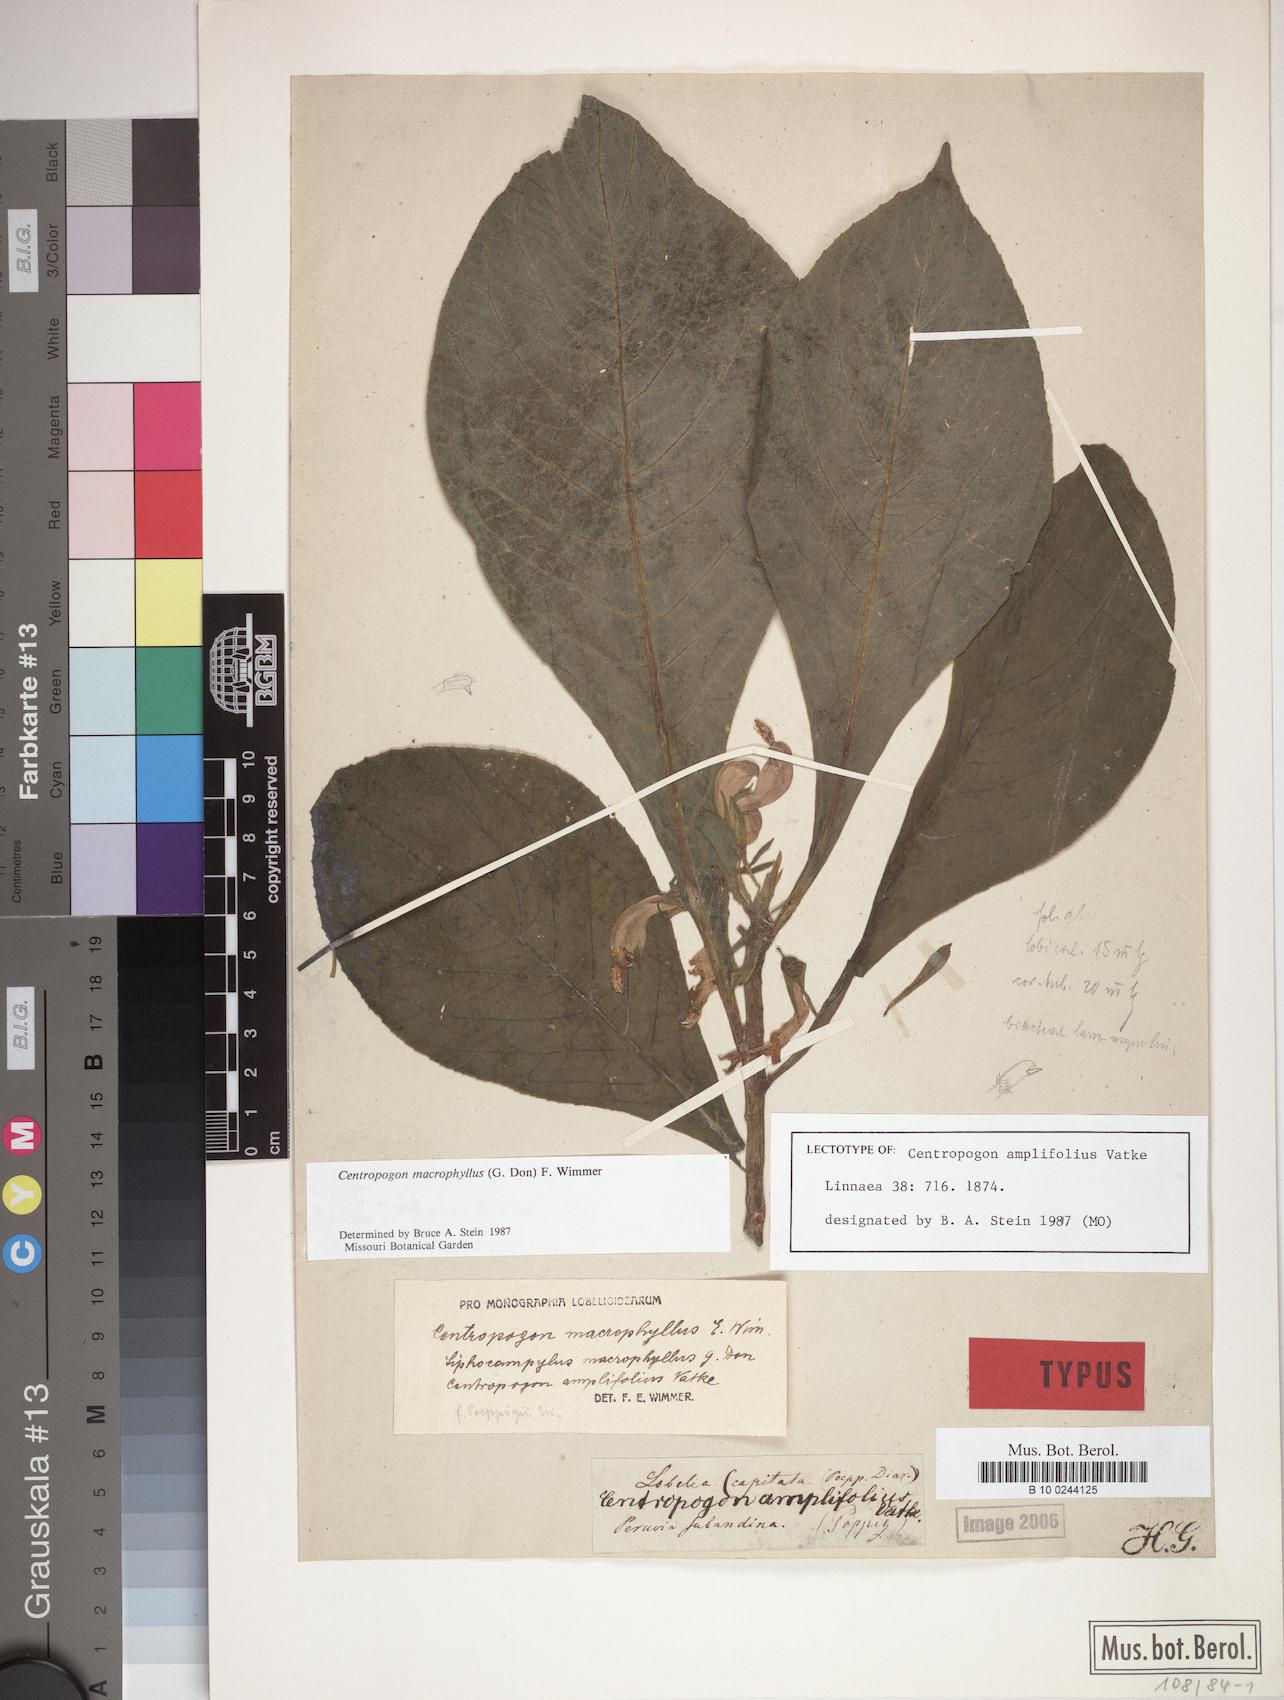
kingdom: Plantae
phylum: Tracheophyta
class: Magnoliopsida
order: Asterales
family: Campanulaceae
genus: Centropogon
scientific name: Centropogon macrophyllus
